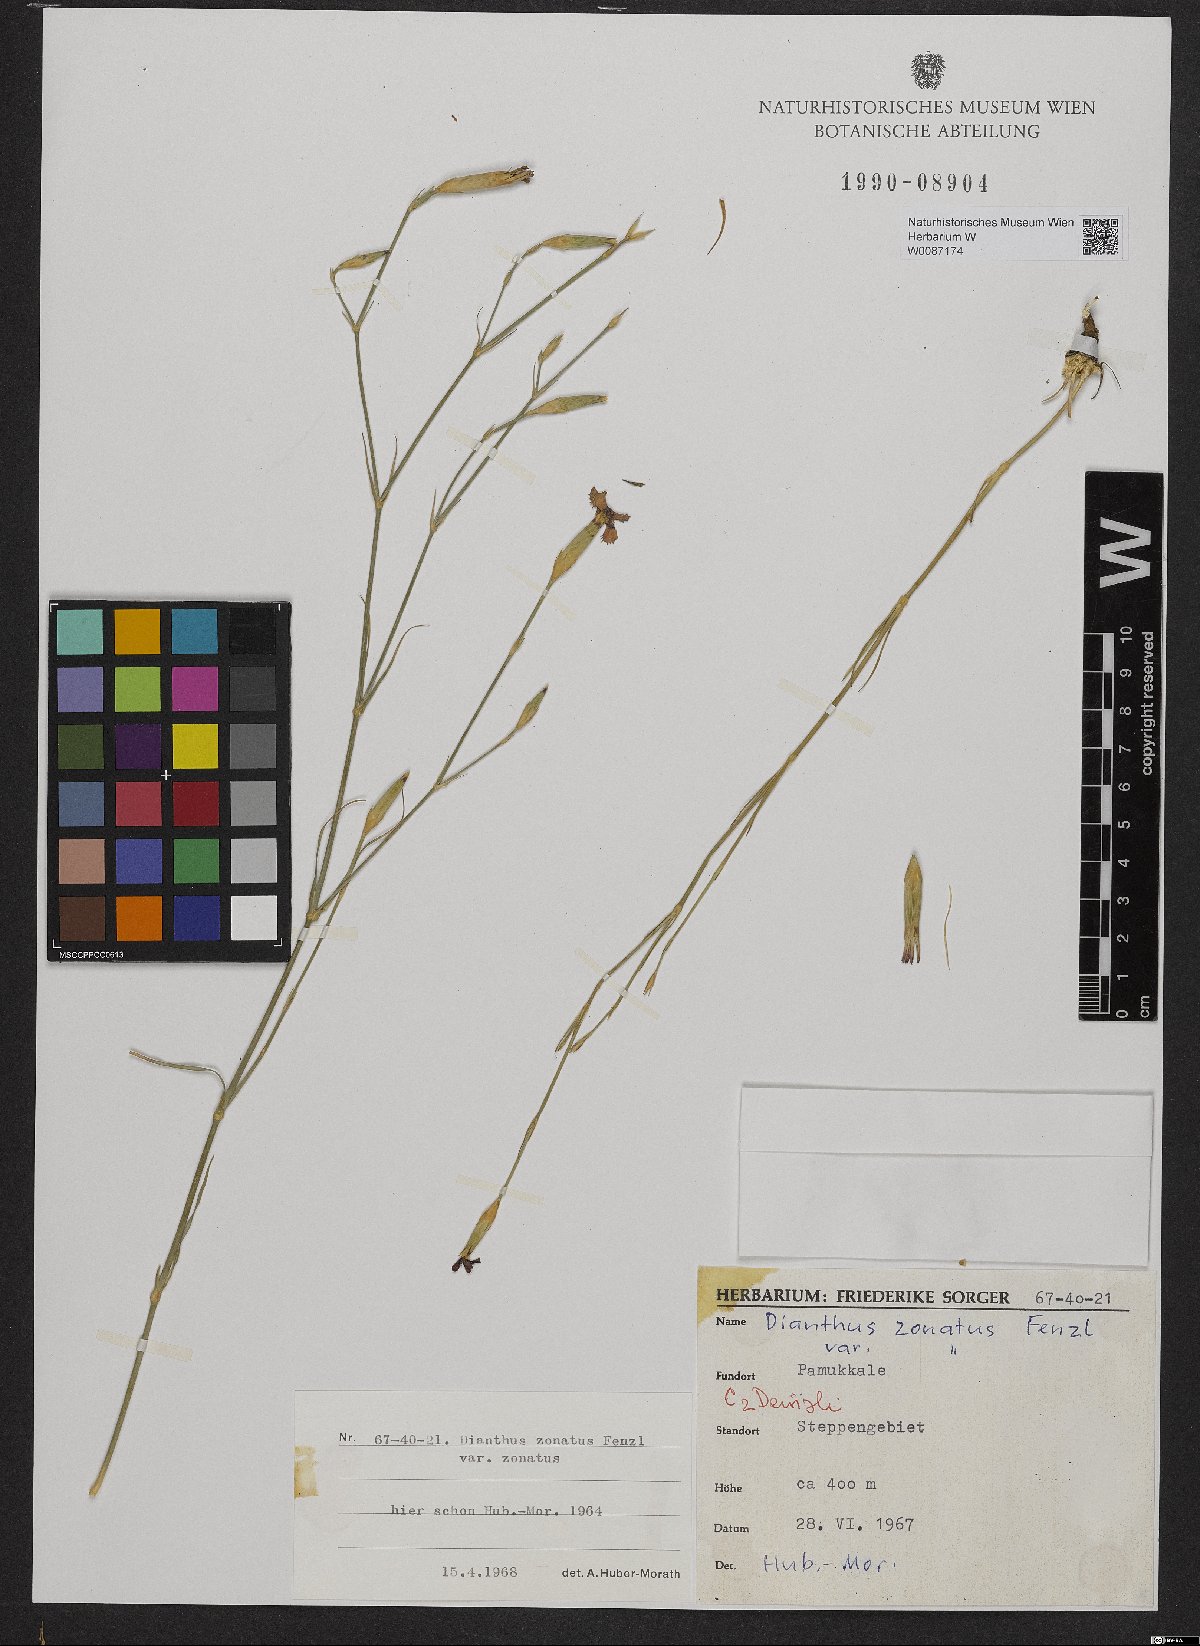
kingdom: Plantae
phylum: Tracheophyta
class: Magnoliopsida
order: Caryophyllales
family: Caryophyllaceae
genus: Dianthus
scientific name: Dianthus zonatus
